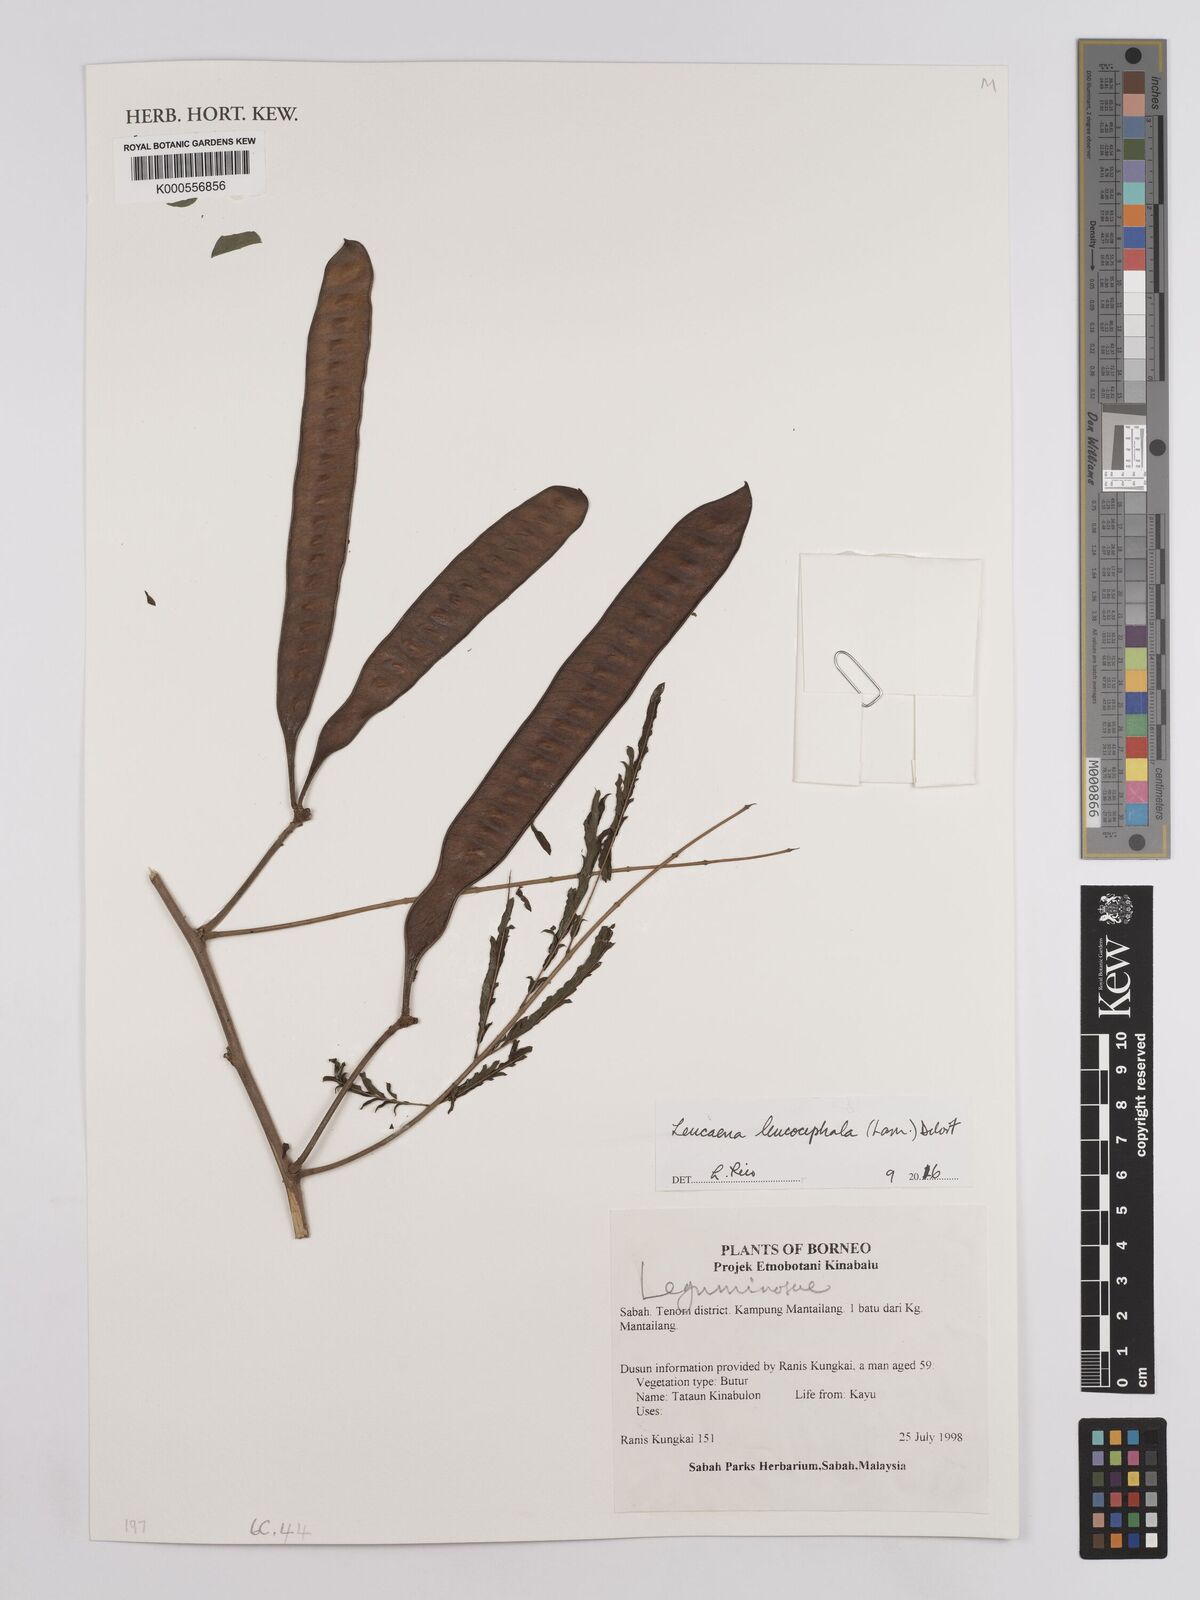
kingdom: Plantae
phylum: Tracheophyta
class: Magnoliopsida
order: Fabales
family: Fabaceae
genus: Leucaena
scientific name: Leucaena leucocephala
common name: White leadtree
